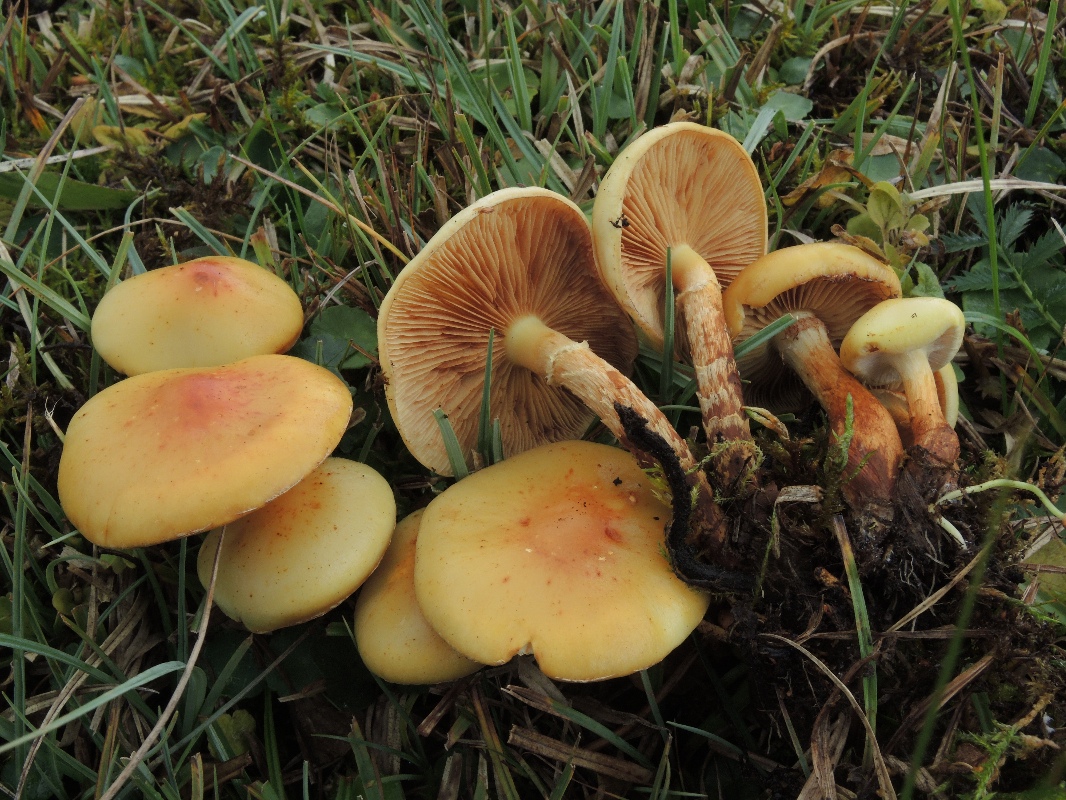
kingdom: Fungi
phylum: Basidiomycota
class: Agaricomycetes
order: Agaricales
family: Hymenogastraceae
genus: Flammula
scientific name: Flammula alnicola
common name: elle-skælhat
